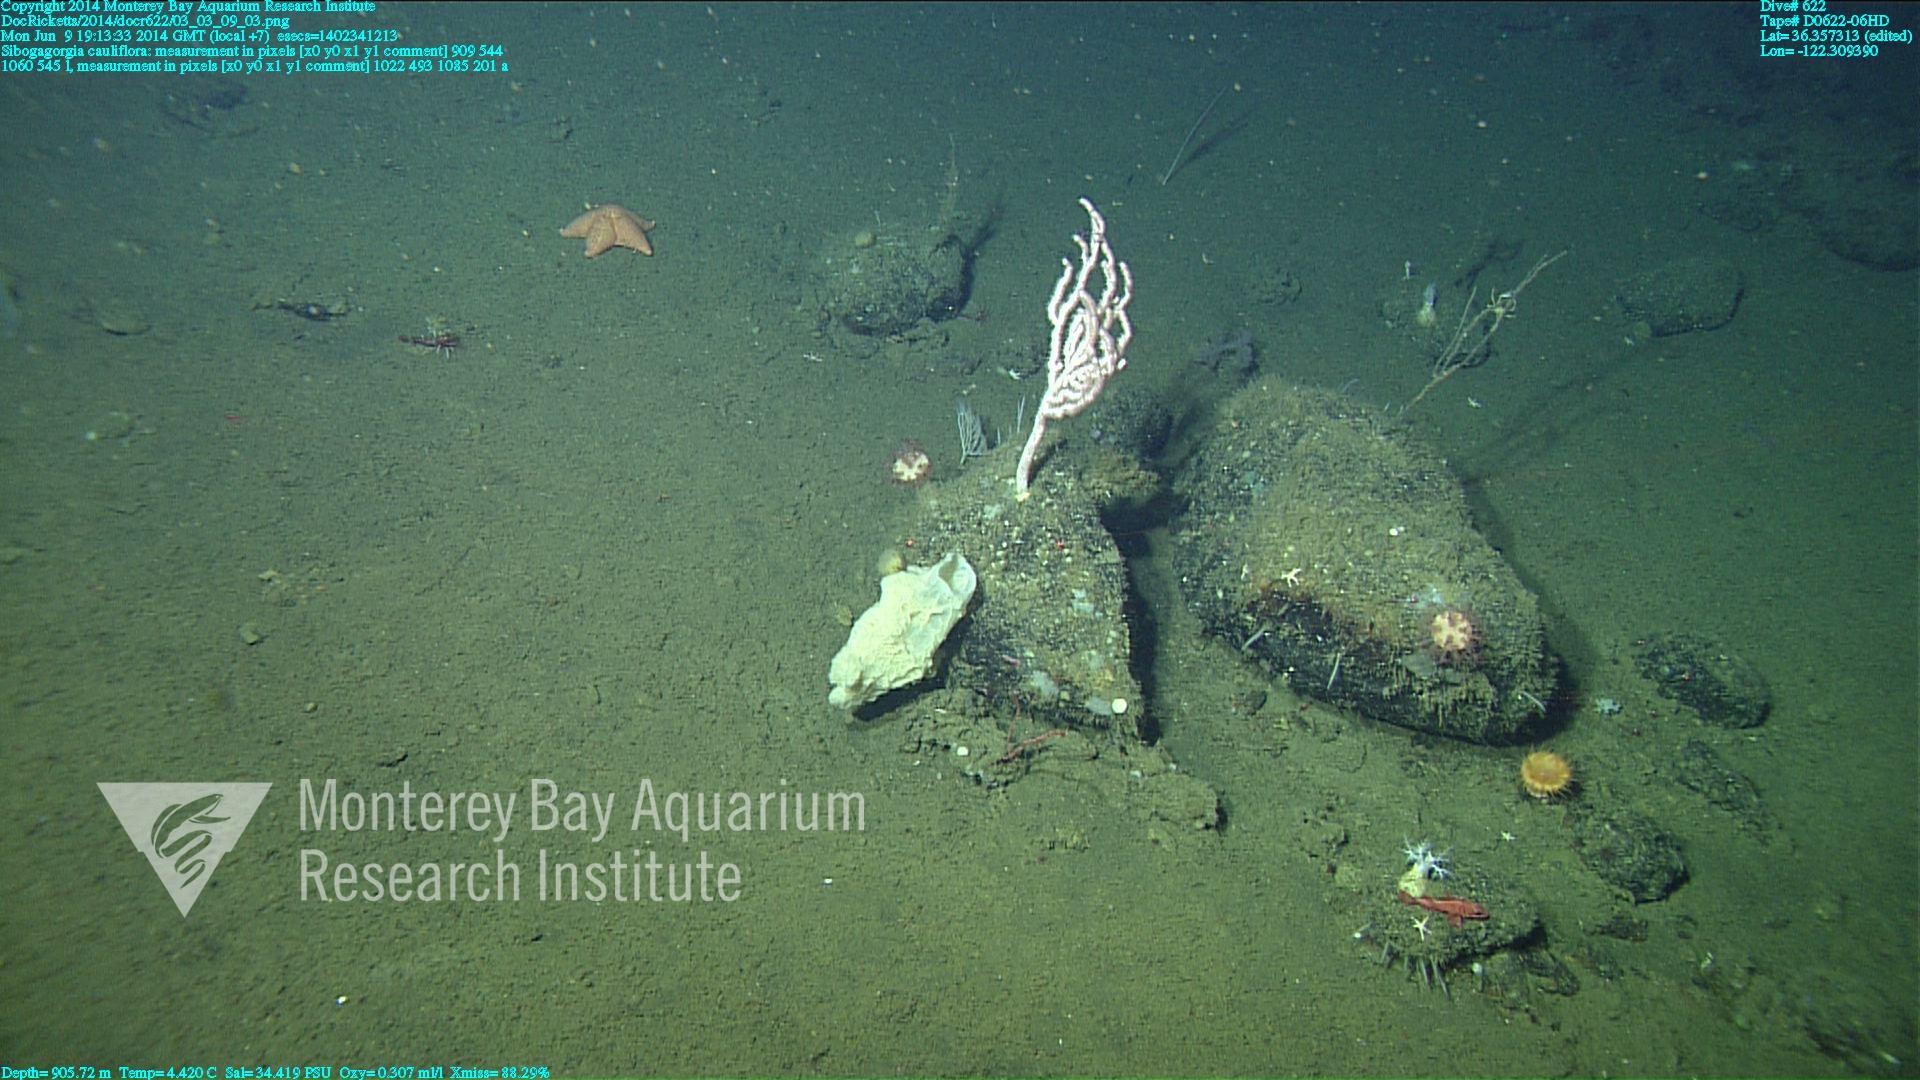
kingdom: Animalia
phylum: Cnidaria
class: Anthozoa
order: Scleralcyonacea
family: Coralliidae
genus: Sibogagorgia
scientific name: Sibogagorgia cauliflora
